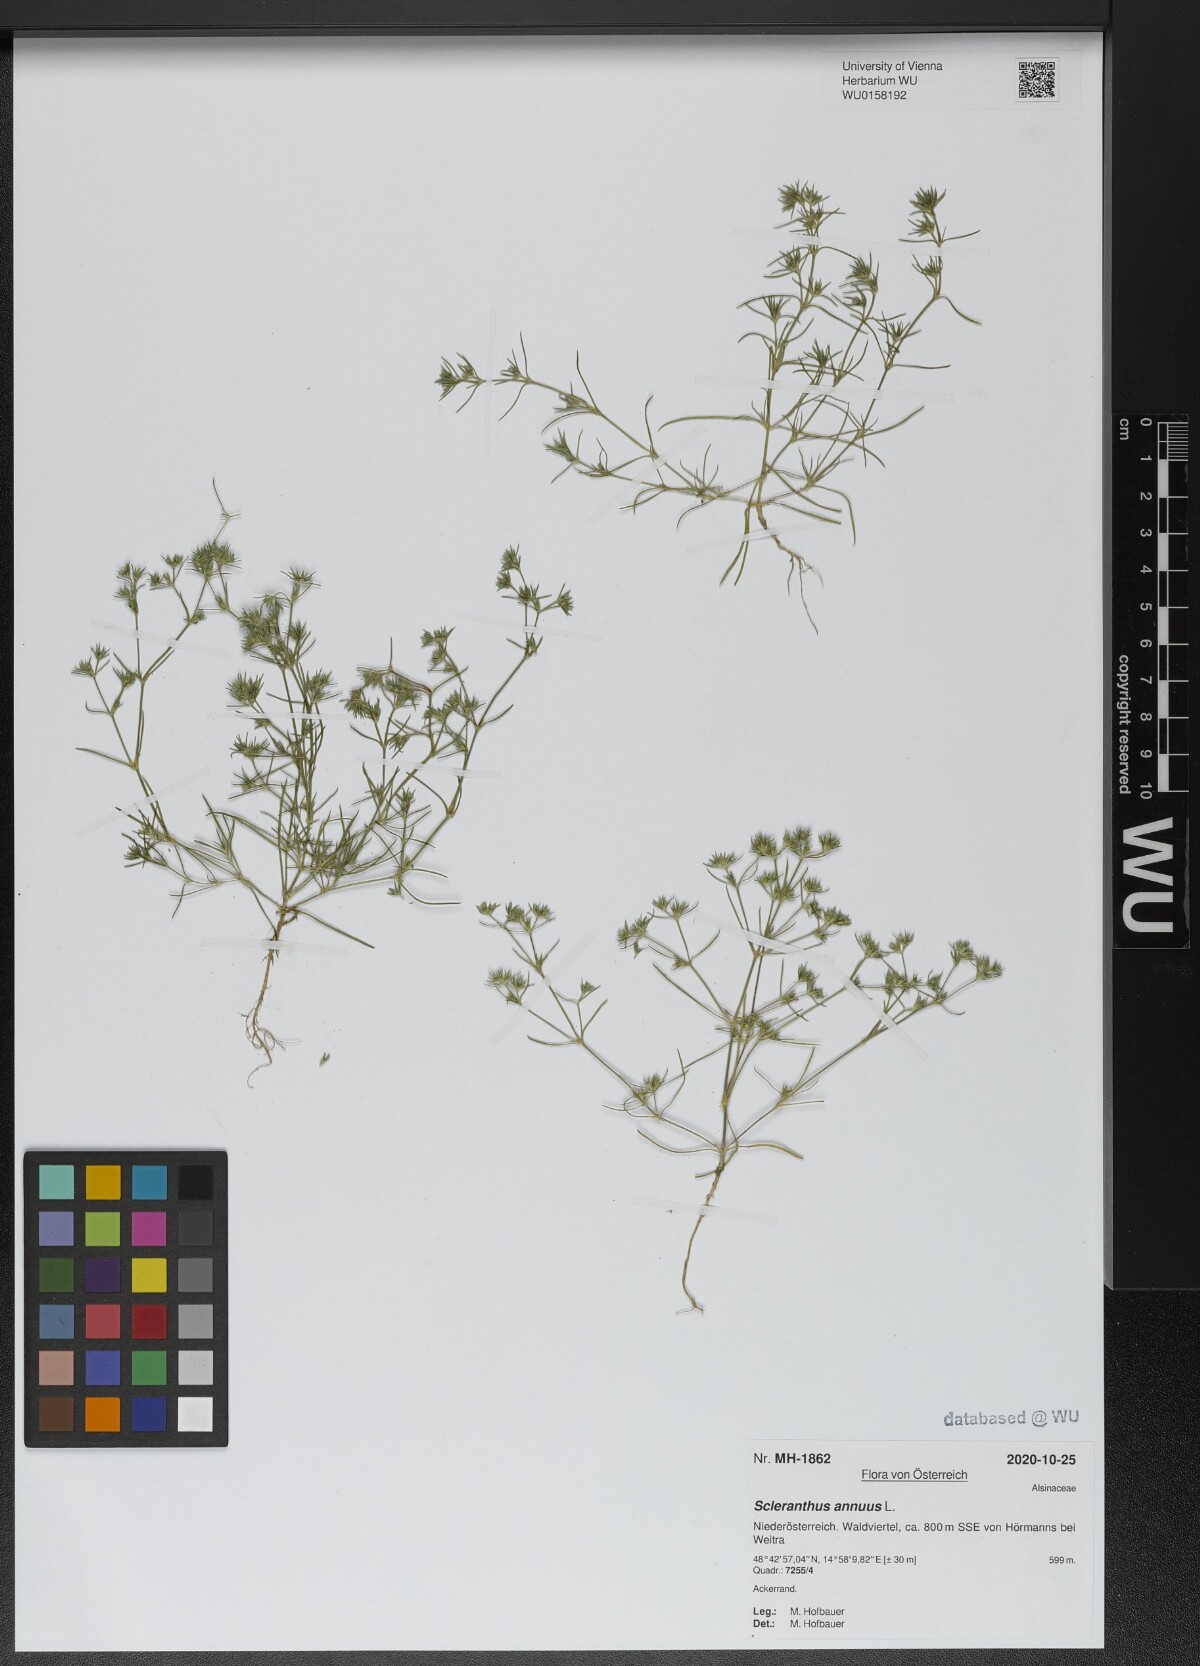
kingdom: Plantae
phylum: Tracheophyta
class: Magnoliopsida
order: Caryophyllales
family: Caryophyllaceae
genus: Scleranthus
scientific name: Scleranthus annuus
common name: Annual knawel
